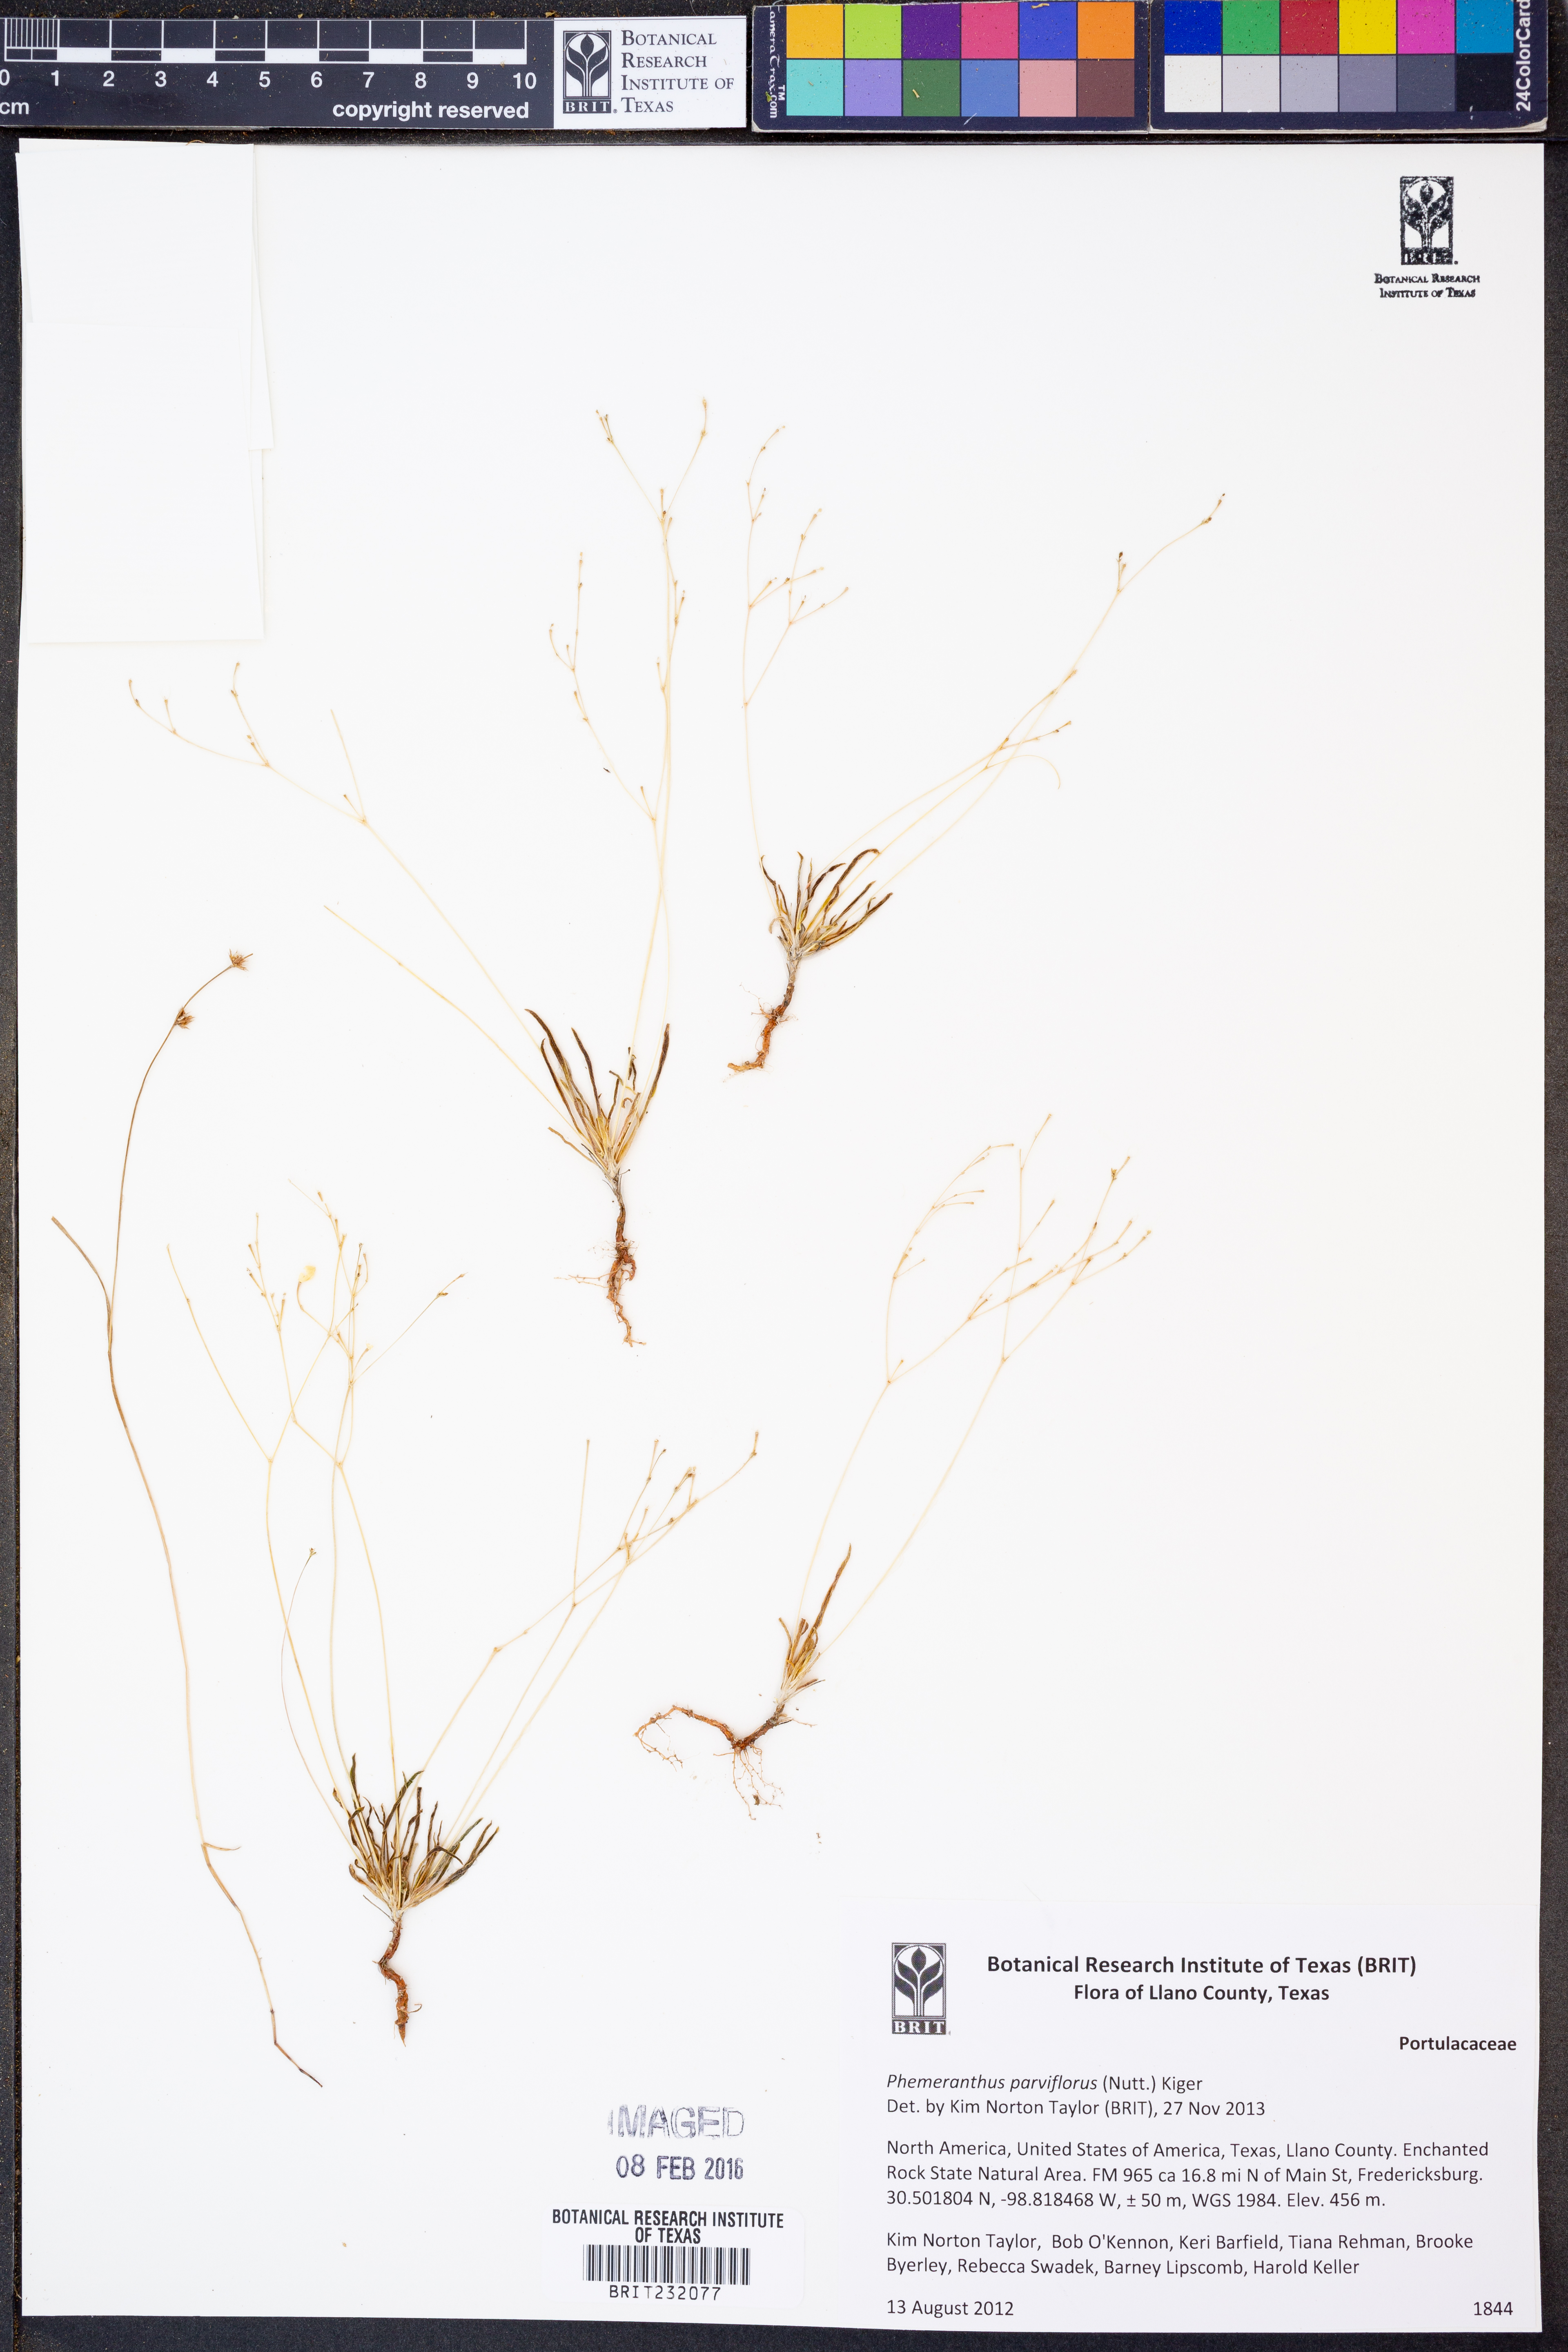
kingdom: Plantae
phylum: Tracheophyta
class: Magnoliopsida
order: Caryophyllales
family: Montiaceae
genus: Phemeranthus
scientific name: Phemeranthus parviflorus
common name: Sunbright
